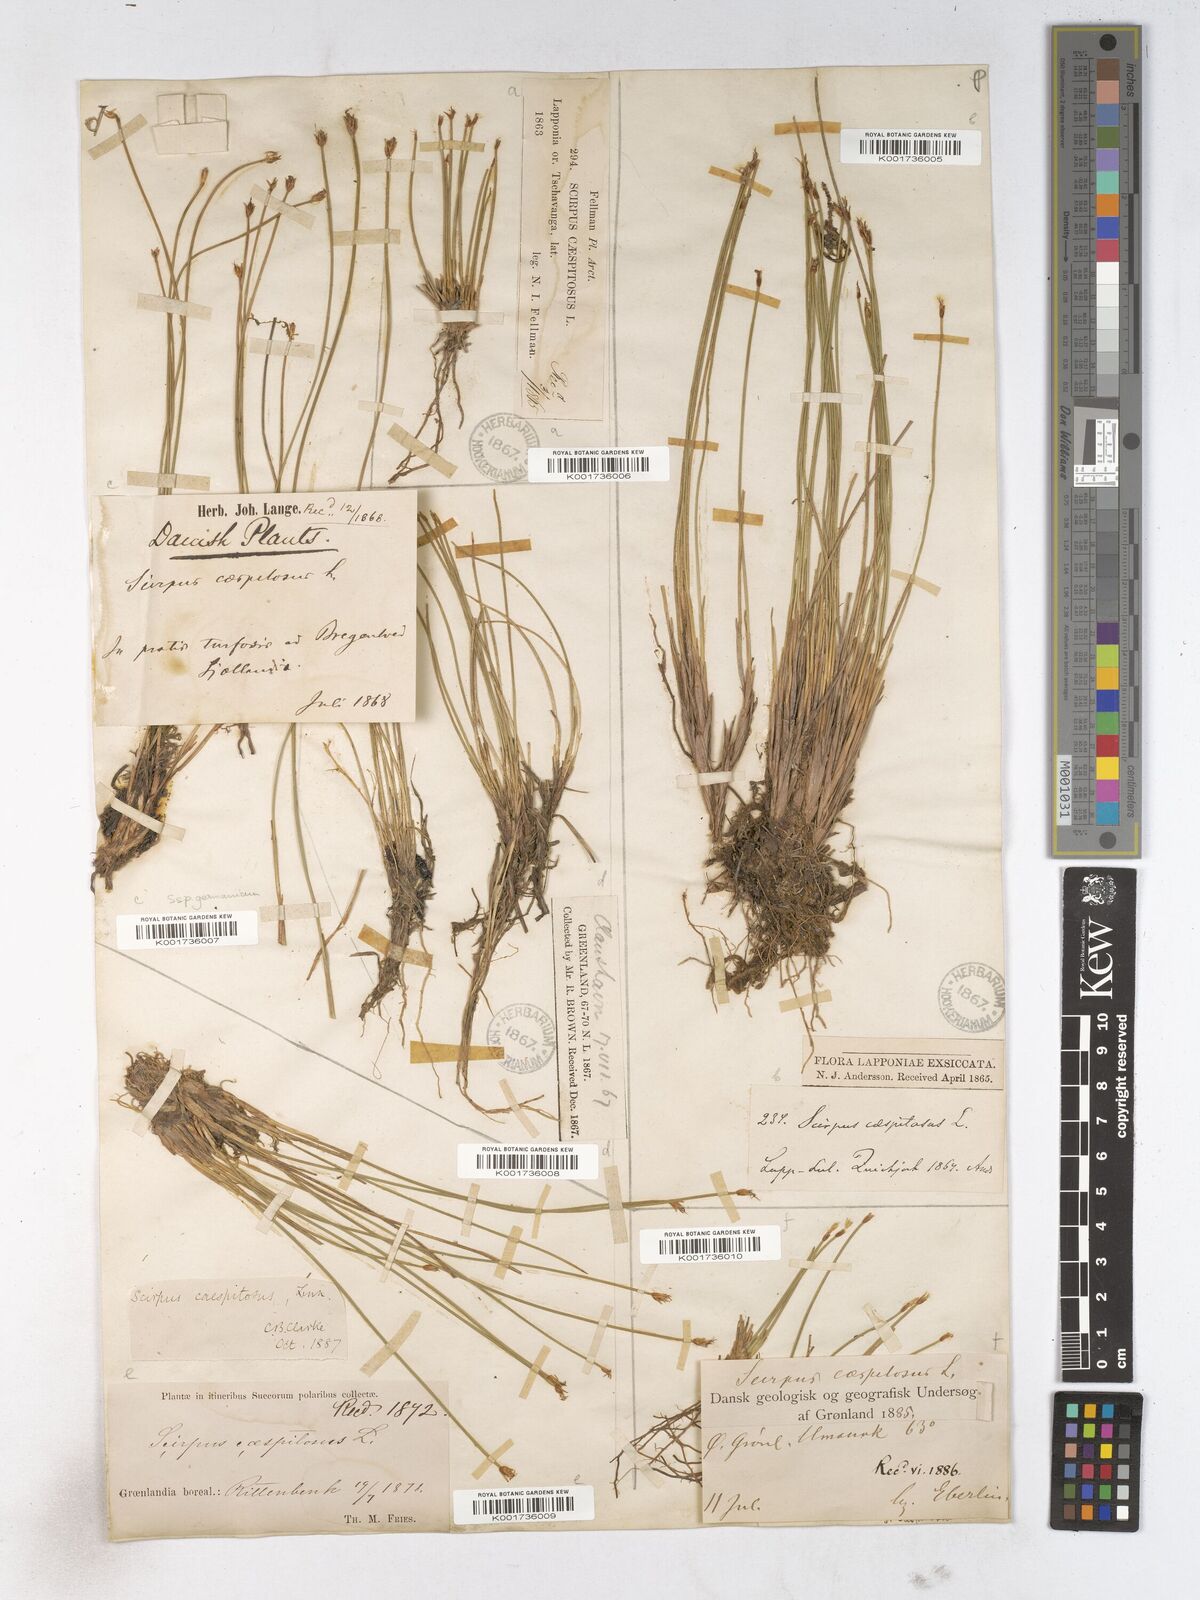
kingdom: Plantae
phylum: Tracheophyta
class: Liliopsida
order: Poales
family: Cyperaceae
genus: Trichophorum
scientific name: Trichophorum cespitosum
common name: Cespitose bulrush
